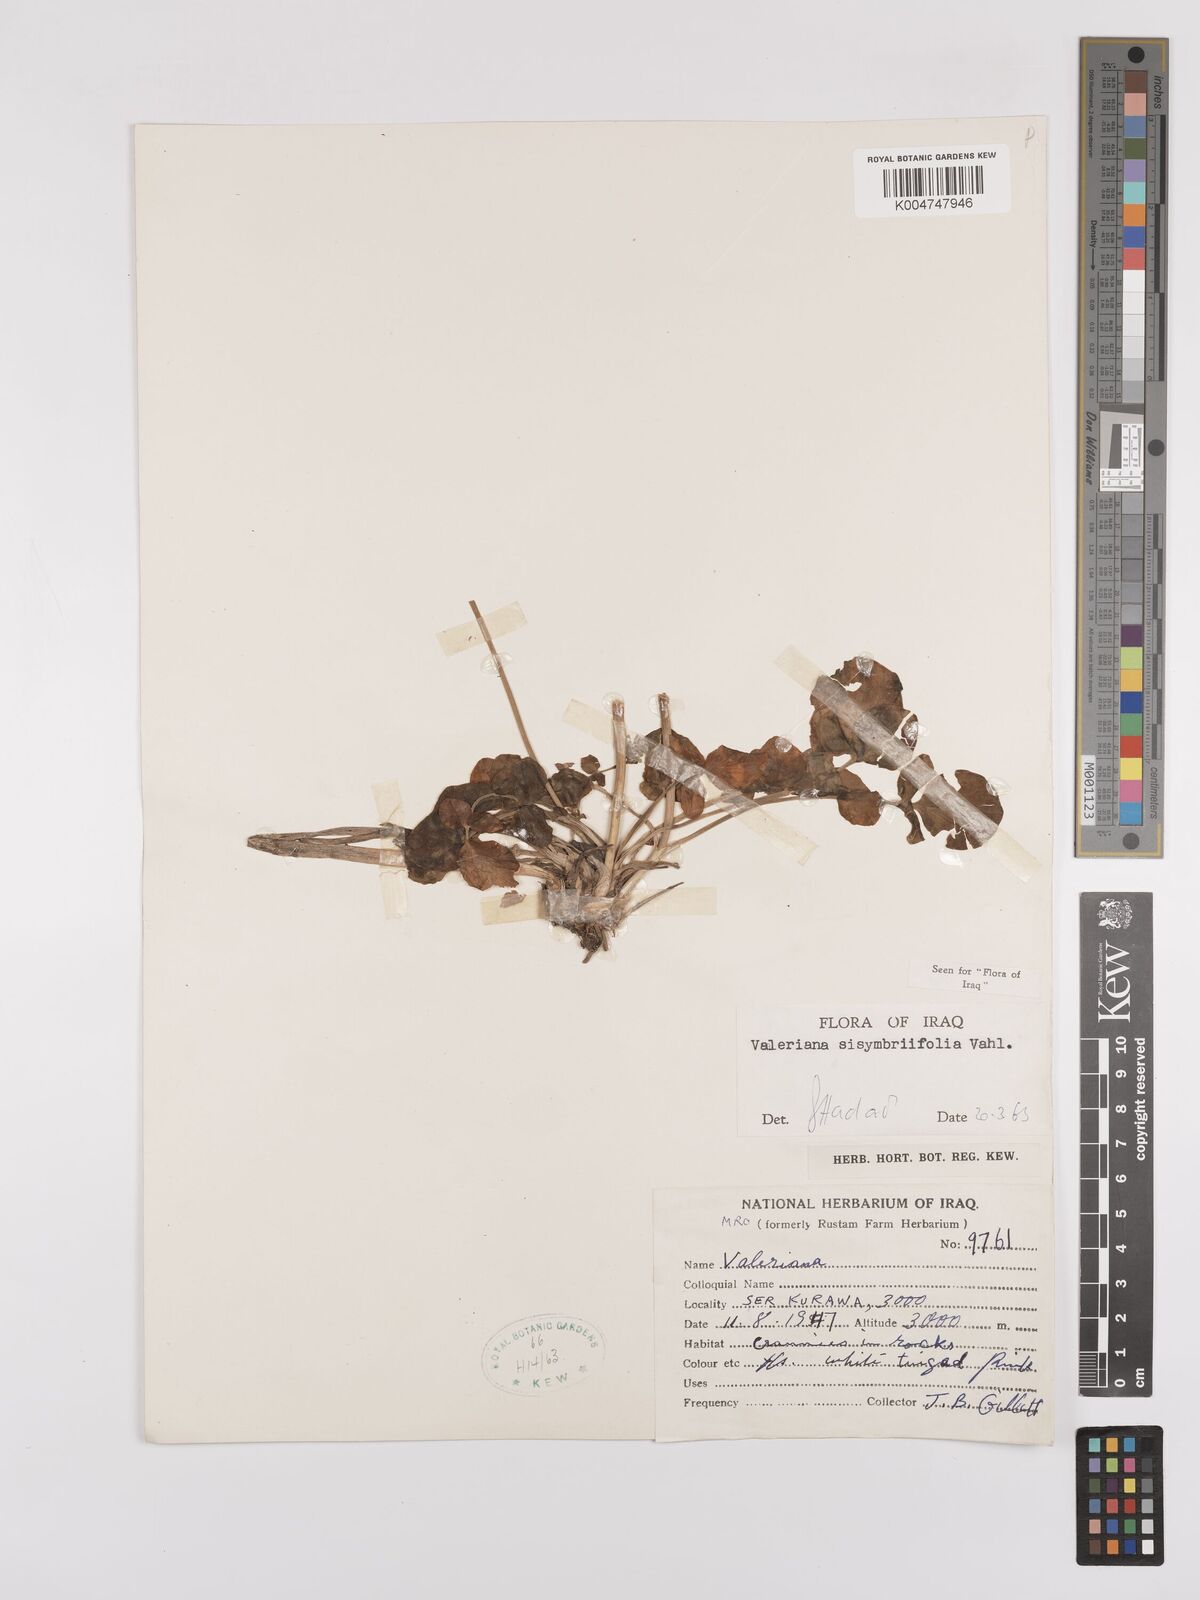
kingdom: Plantae
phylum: Tracheophyta
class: Magnoliopsida
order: Dipsacales
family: Caprifoliaceae
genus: Valeriana
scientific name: Valeriana
